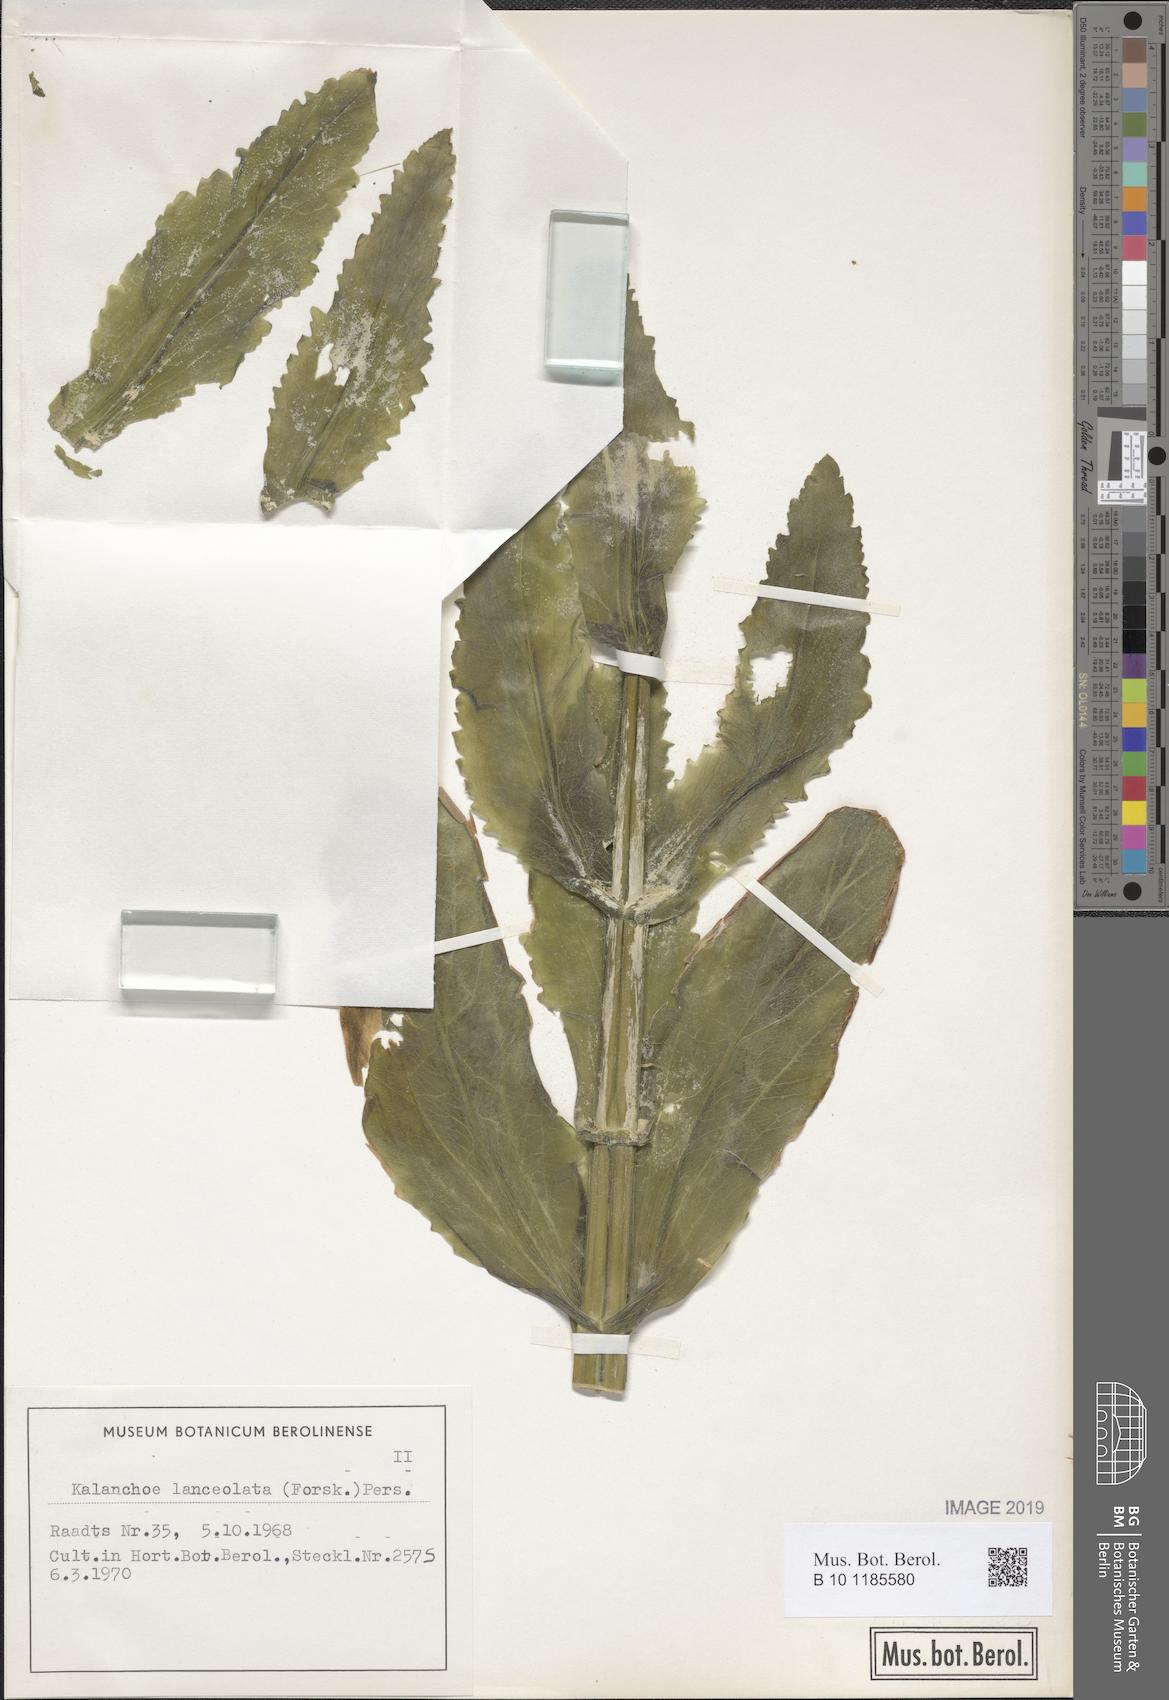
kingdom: Plantae
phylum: Tracheophyta
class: Magnoliopsida
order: Saxifragales
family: Crassulaceae
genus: Kalanchoe
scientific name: Kalanchoe lanceolata
